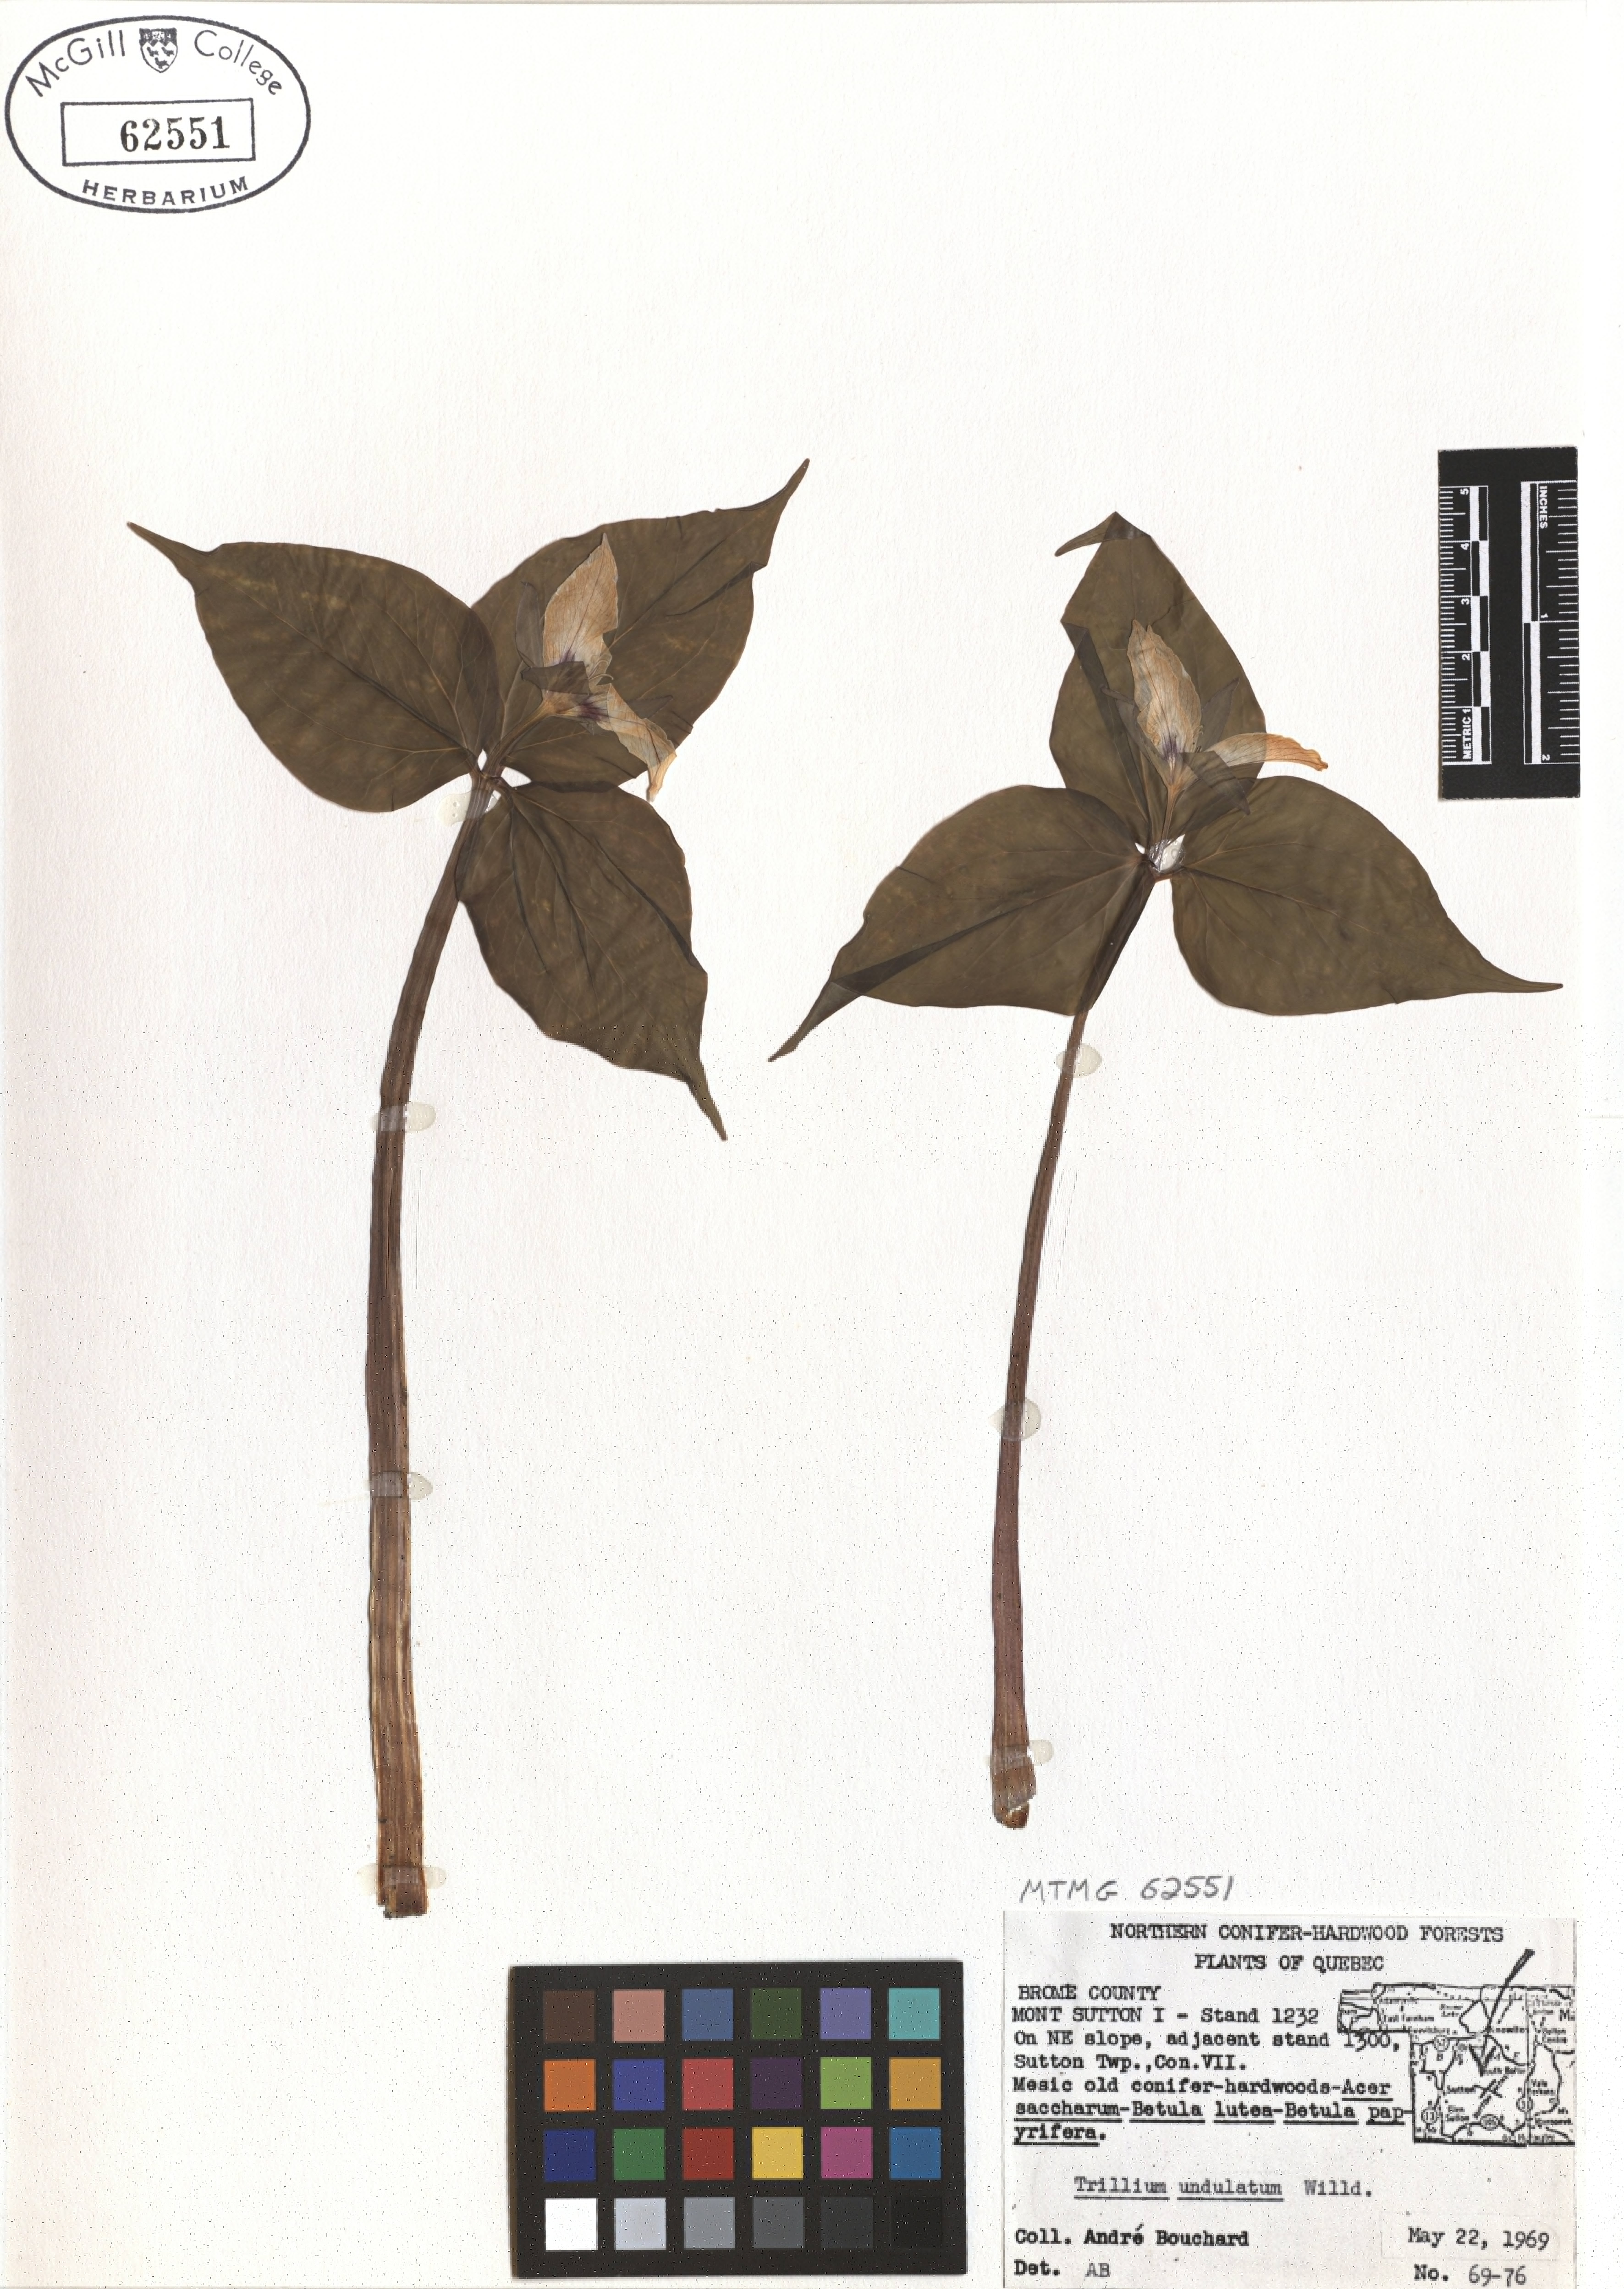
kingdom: Plantae
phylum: Tracheophyta
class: Liliopsida
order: Liliales
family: Melanthiaceae
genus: Trillium
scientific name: Trillium undulatum
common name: Paint trillium
